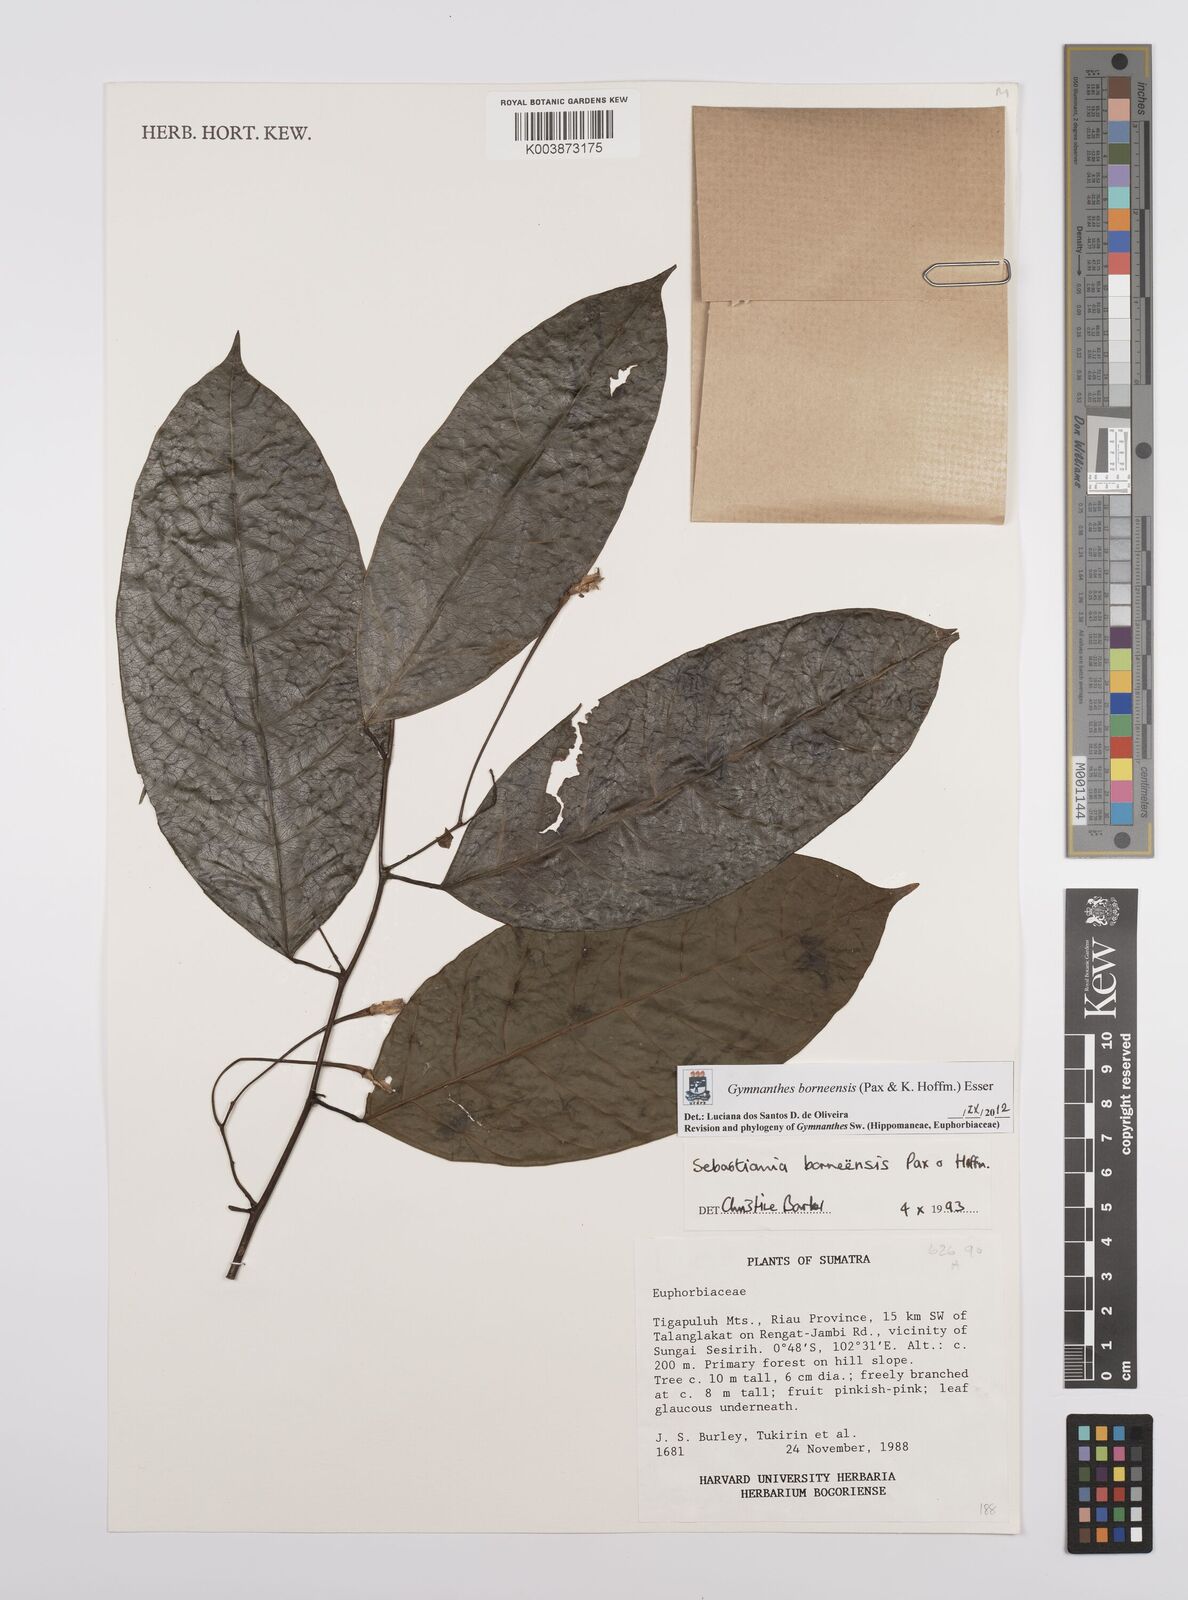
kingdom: Plantae
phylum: Tracheophyta
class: Magnoliopsida
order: Malpighiales
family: Euphorbiaceae
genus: Gymnanthes
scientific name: Gymnanthes borneensis
